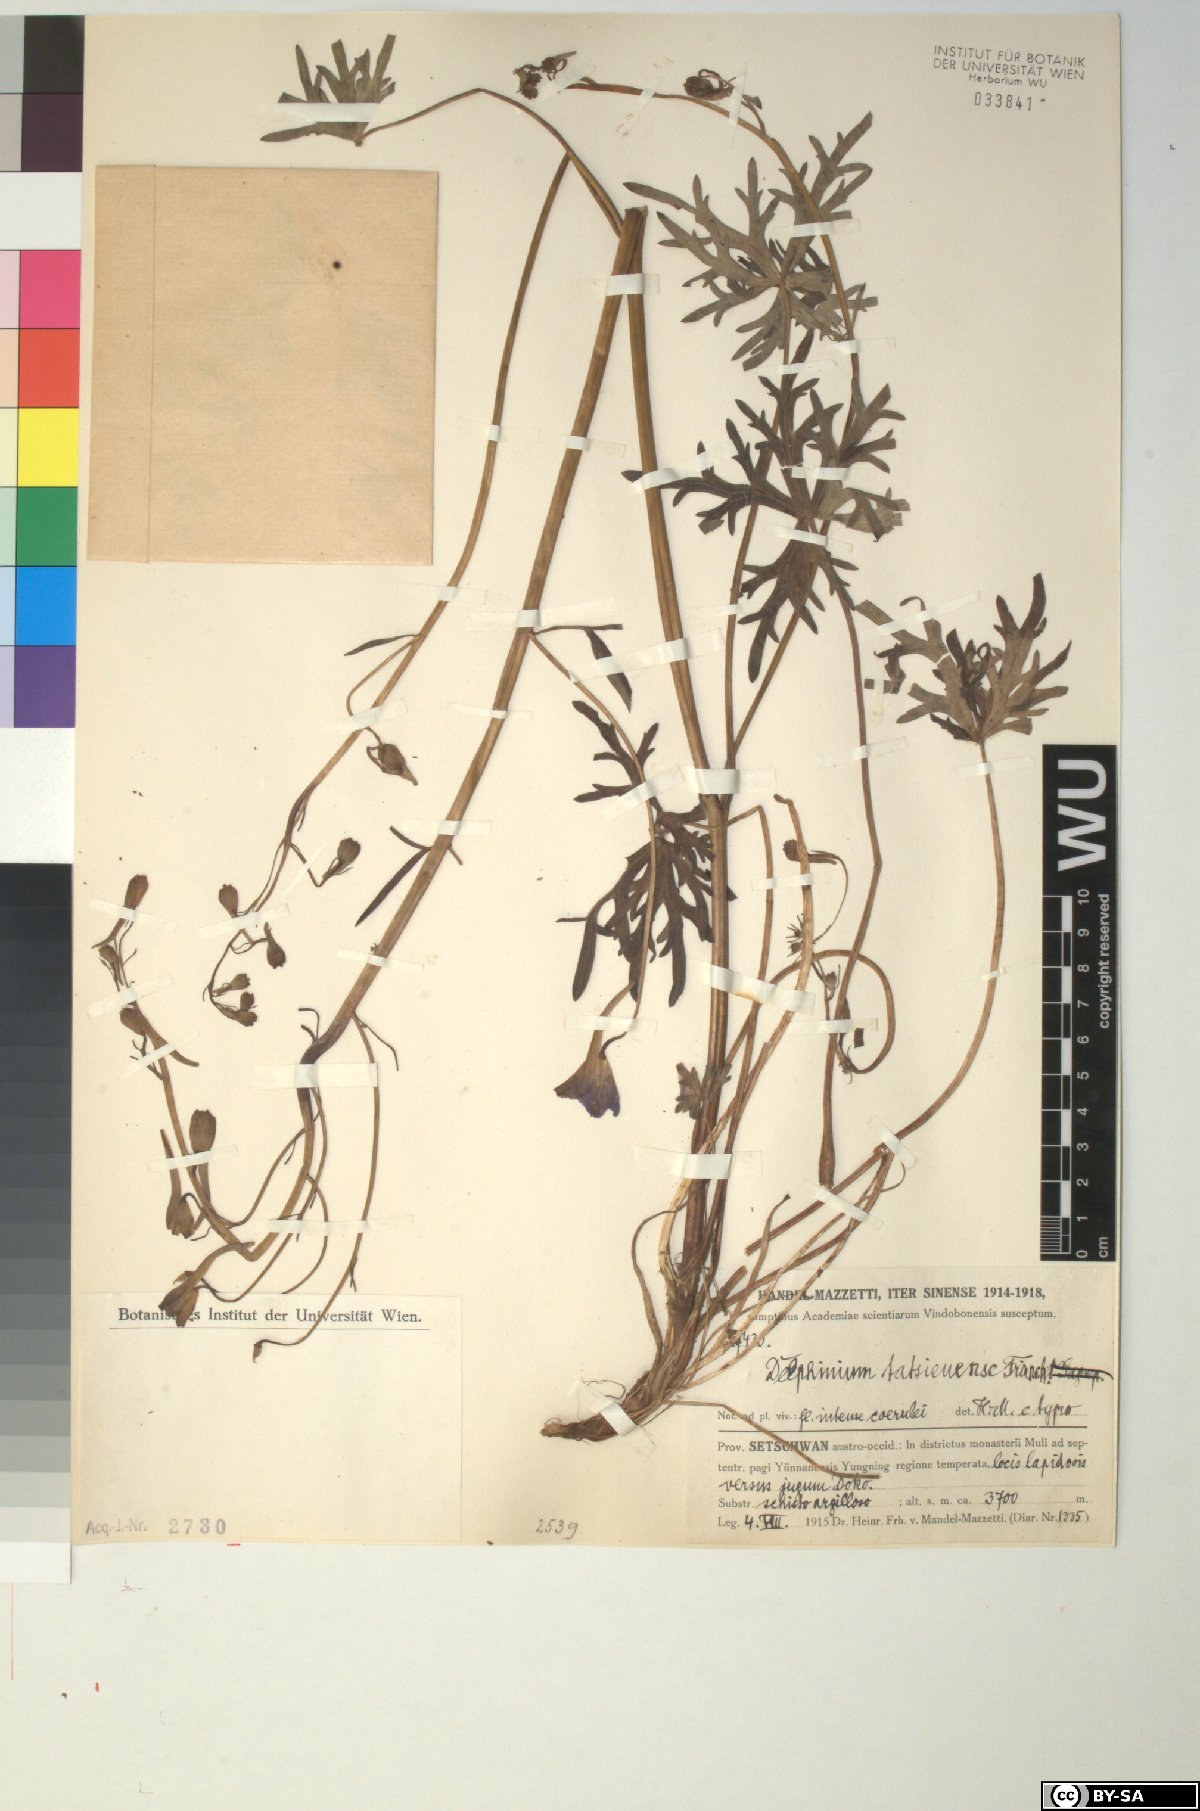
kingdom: Plantae
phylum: Tracheophyta
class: Magnoliopsida
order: Ranunculales
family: Ranunculaceae
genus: Delphinium
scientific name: Delphinium tatsienense
